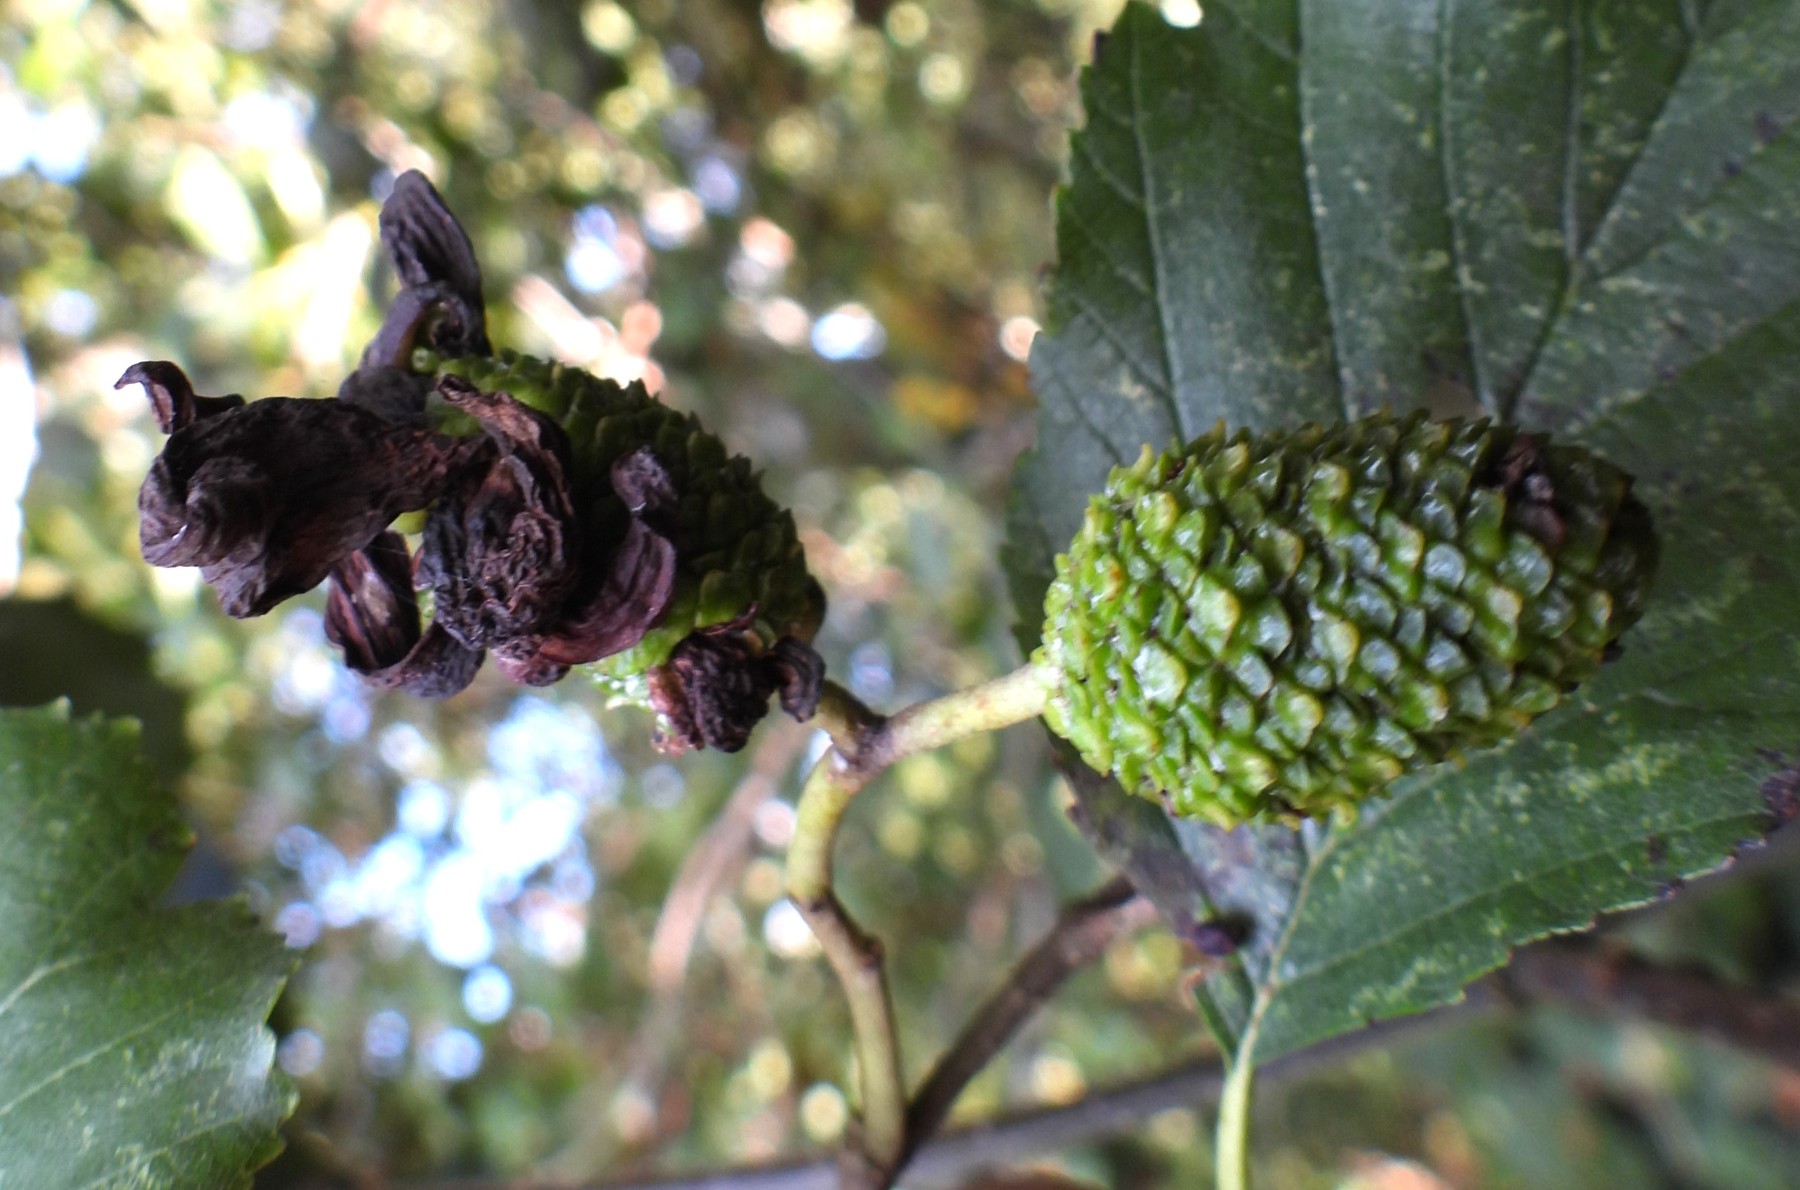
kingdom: Fungi
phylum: Ascomycota
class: Taphrinomycetes
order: Taphrinales
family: Taphrinaceae
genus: Taphrina
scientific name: Taphrina alni
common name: Alder tongue
